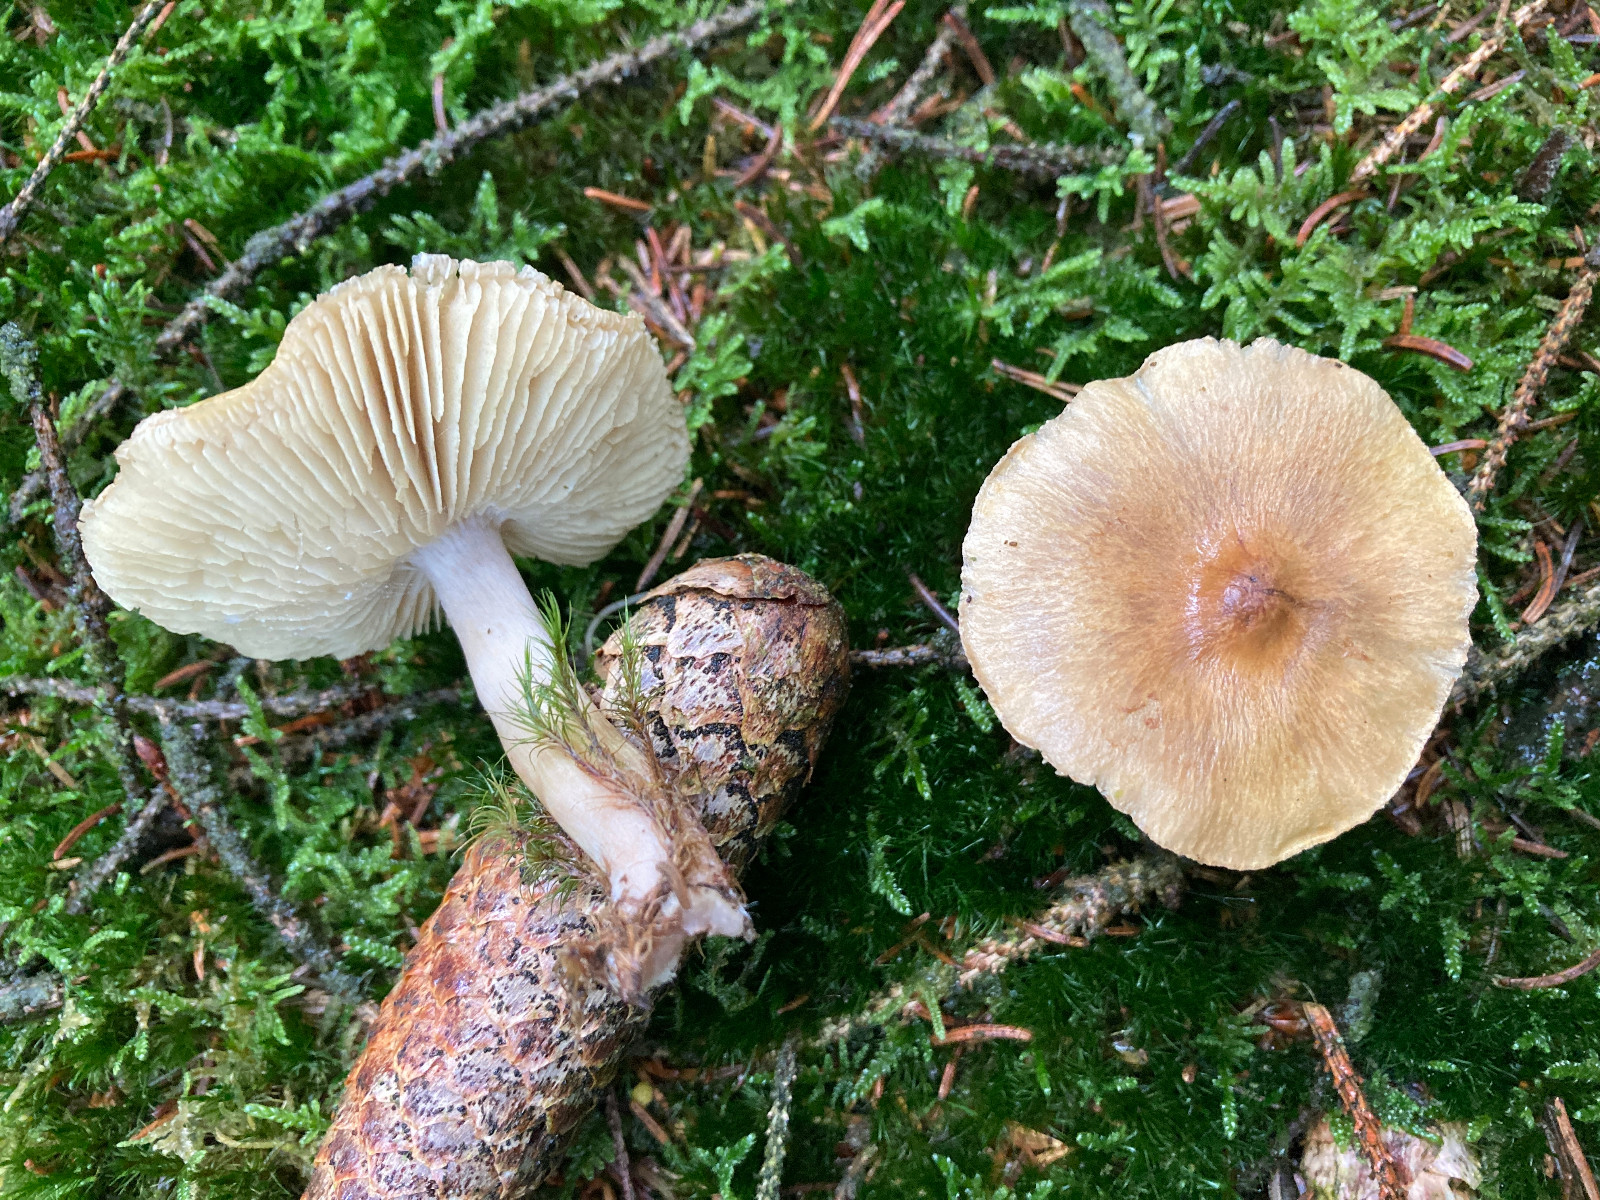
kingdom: Fungi
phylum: Basidiomycota
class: Agaricomycetes
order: Agaricales
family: Tricholomataceae
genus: Tricholoma
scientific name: Tricholoma aestuans
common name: kegle-ridderhat
